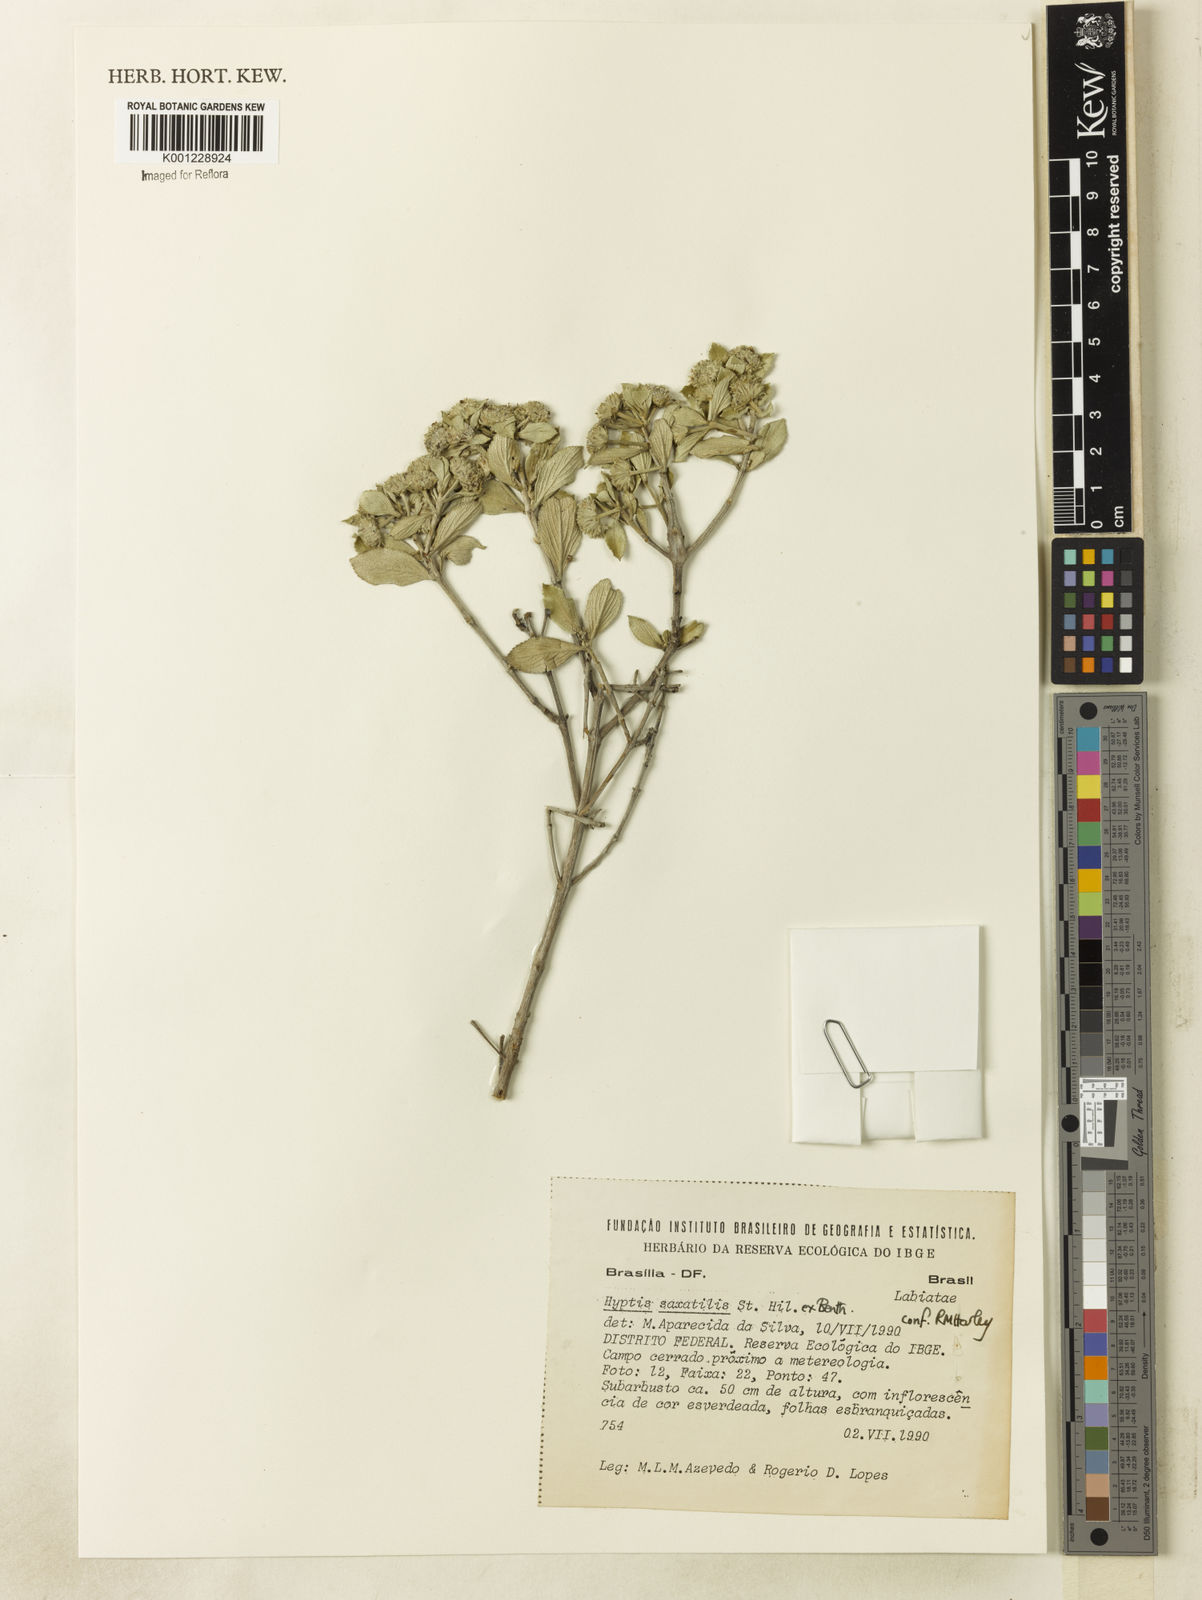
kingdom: Plantae
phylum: Tracheophyta
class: Magnoliopsida
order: Lamiales
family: Lamiaceae
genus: Hyptis
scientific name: Hyptis saxatilis
